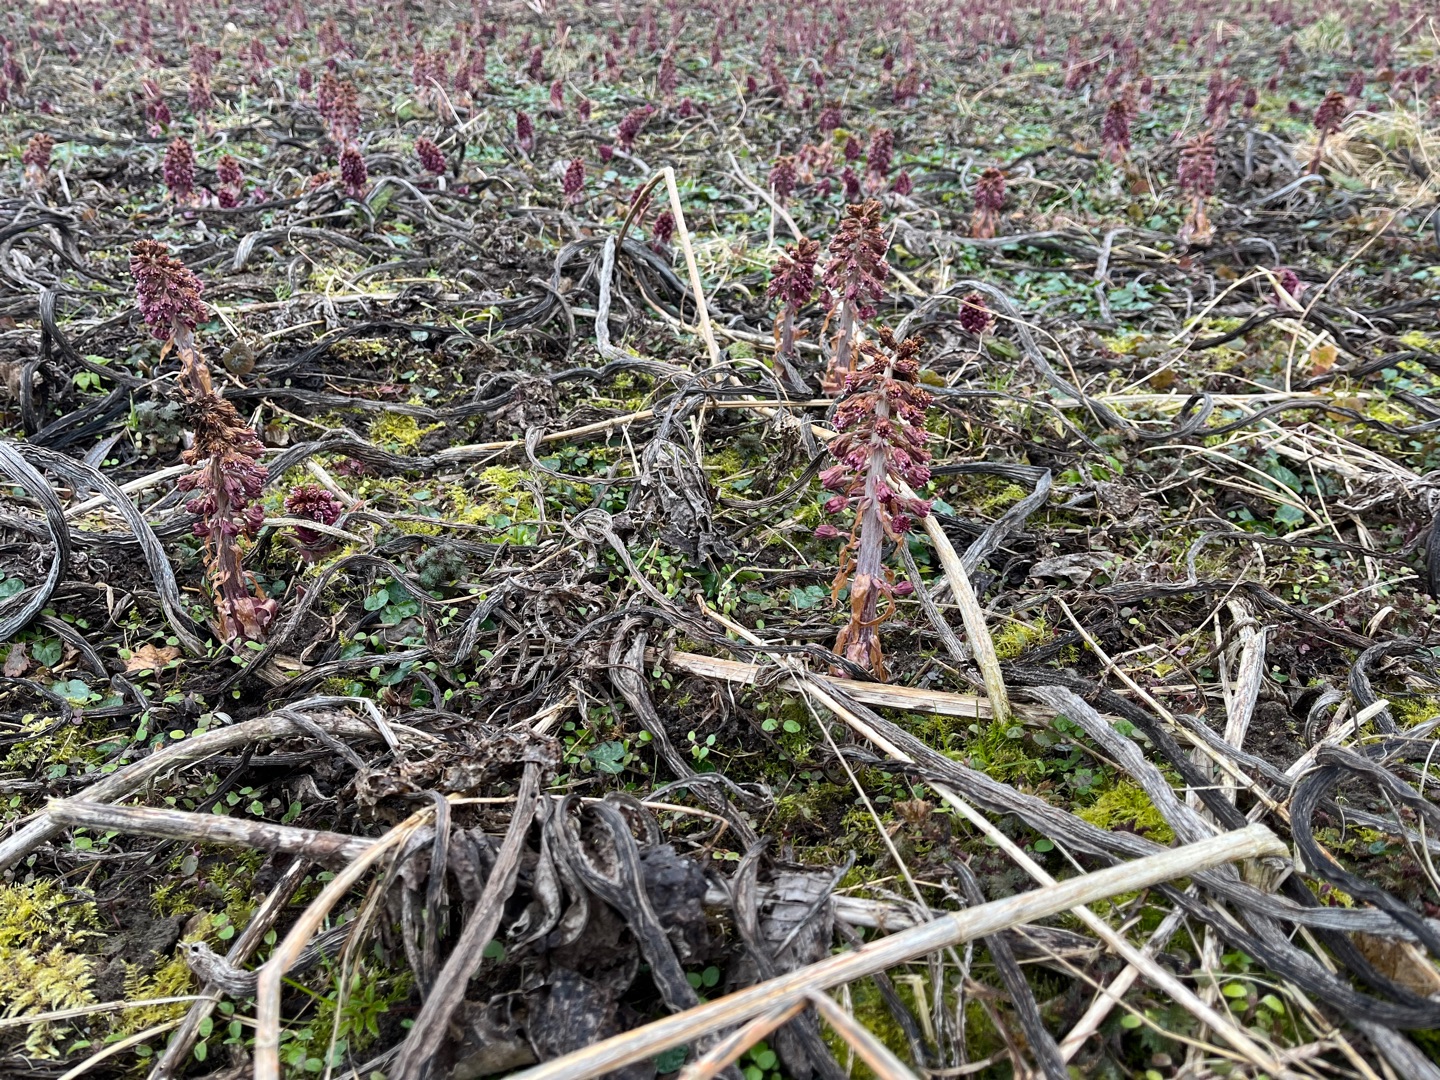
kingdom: Plantae
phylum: Tracheophyta
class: Magnoliopsida
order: Asterales
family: Asteraceae
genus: Petasites
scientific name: Petasites hybridus
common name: Rød hestehov
